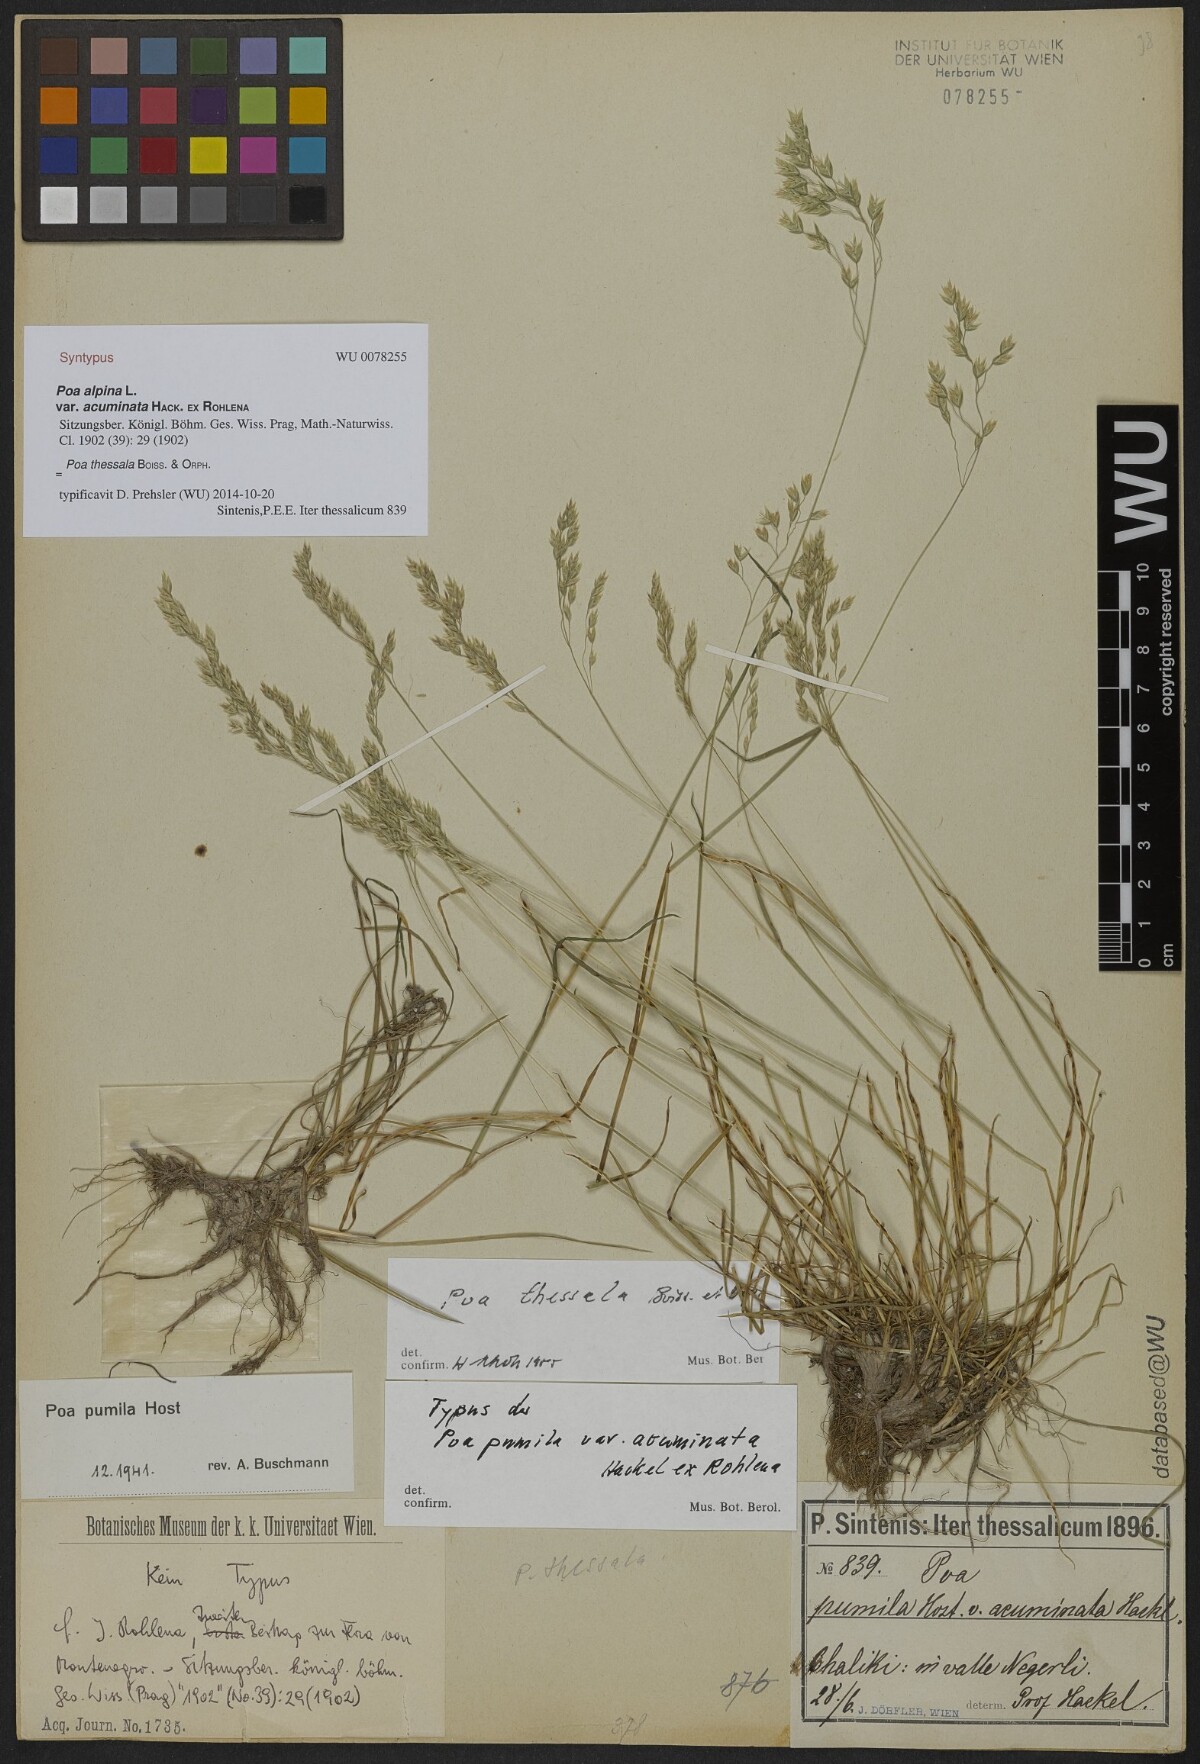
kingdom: Plantae
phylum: Tracheophyta
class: Liliopsida
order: Poales
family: Poaceae
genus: Poa
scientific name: Poa alpina
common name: Alpine bluegrass
